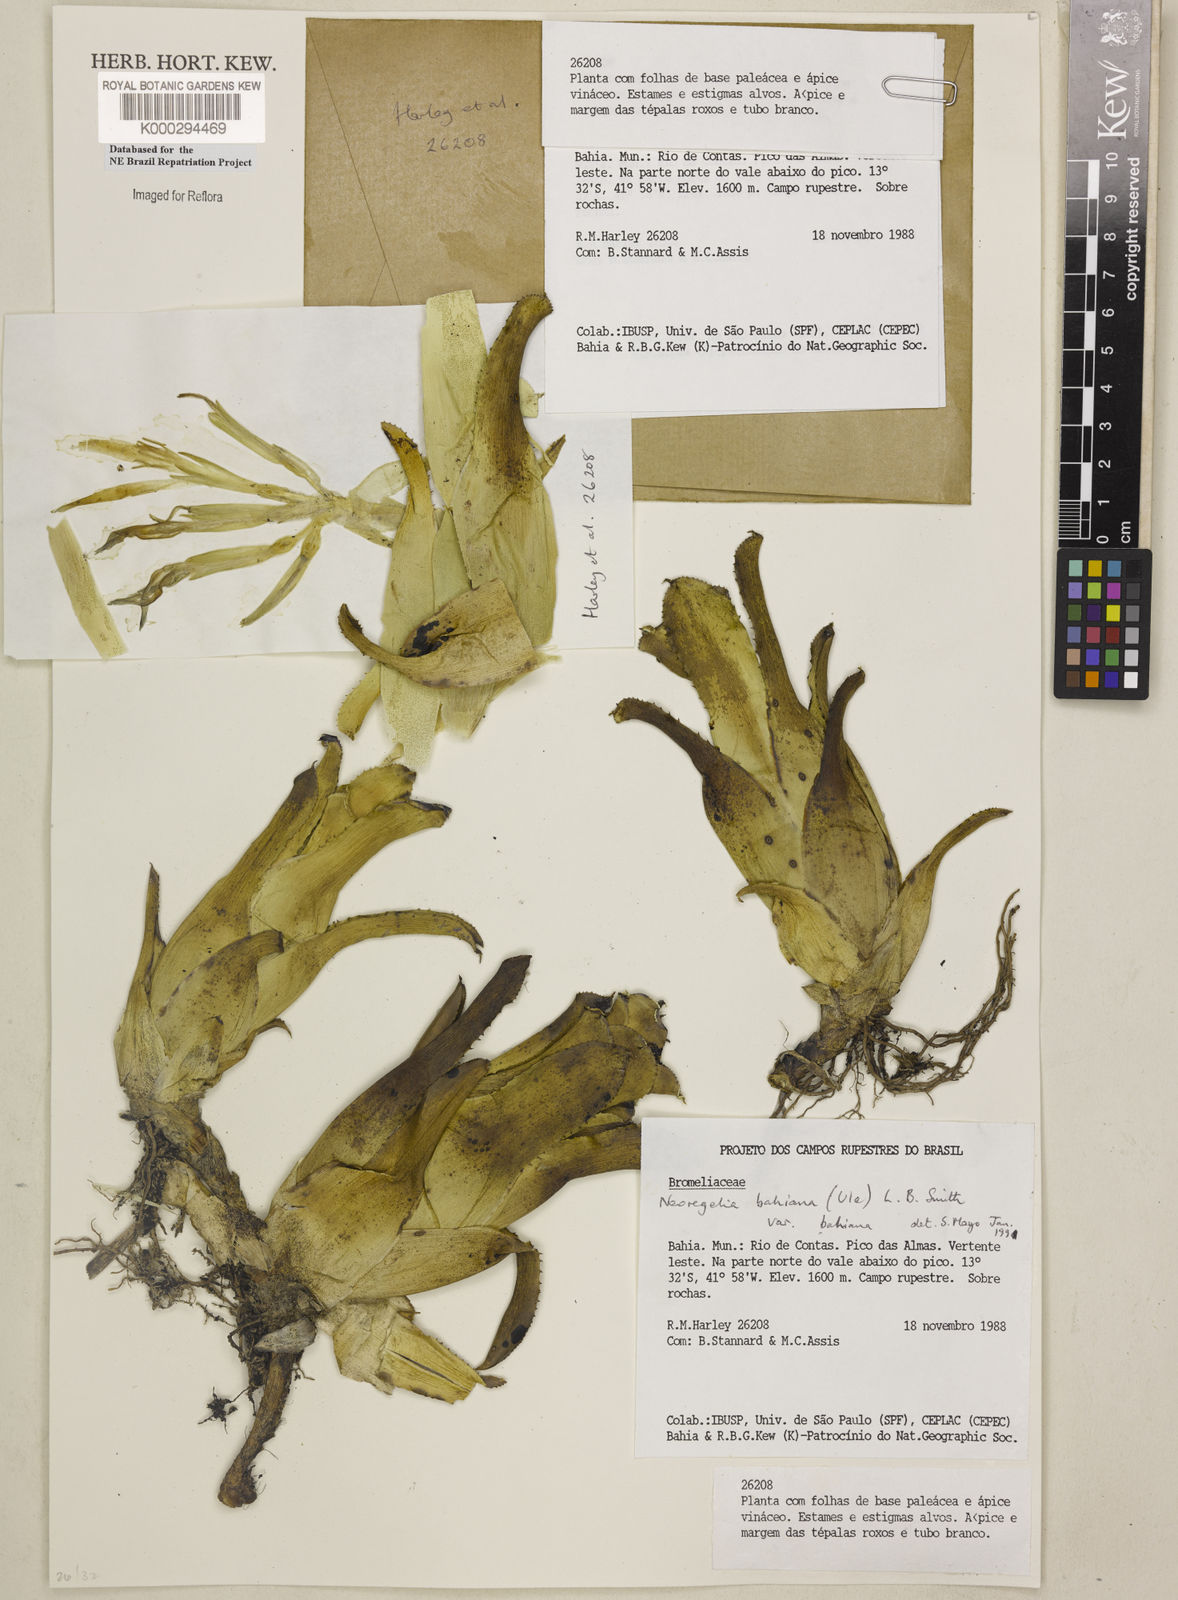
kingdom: Plantae
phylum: Tracheophyta
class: Liliopsida
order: Poales
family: Bromeliaceae
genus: Neoregelia
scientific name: Neoregelia bahiana
